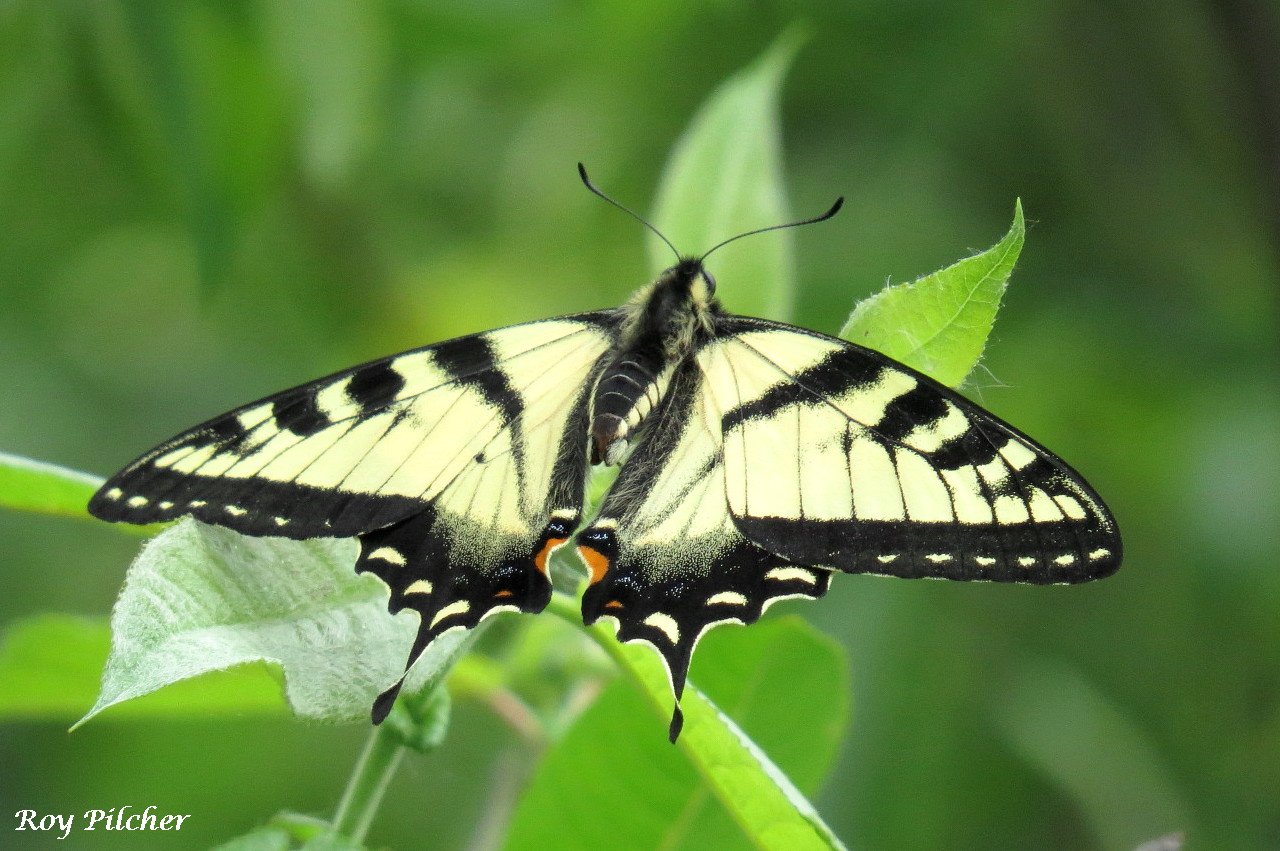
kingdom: Animalia
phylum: Arthropoda
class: Insecta
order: Lepidoptera
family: Papilionidae
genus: Pterourus
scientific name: Pterourus canadensis
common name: Canadian Tiger Swallowtail
